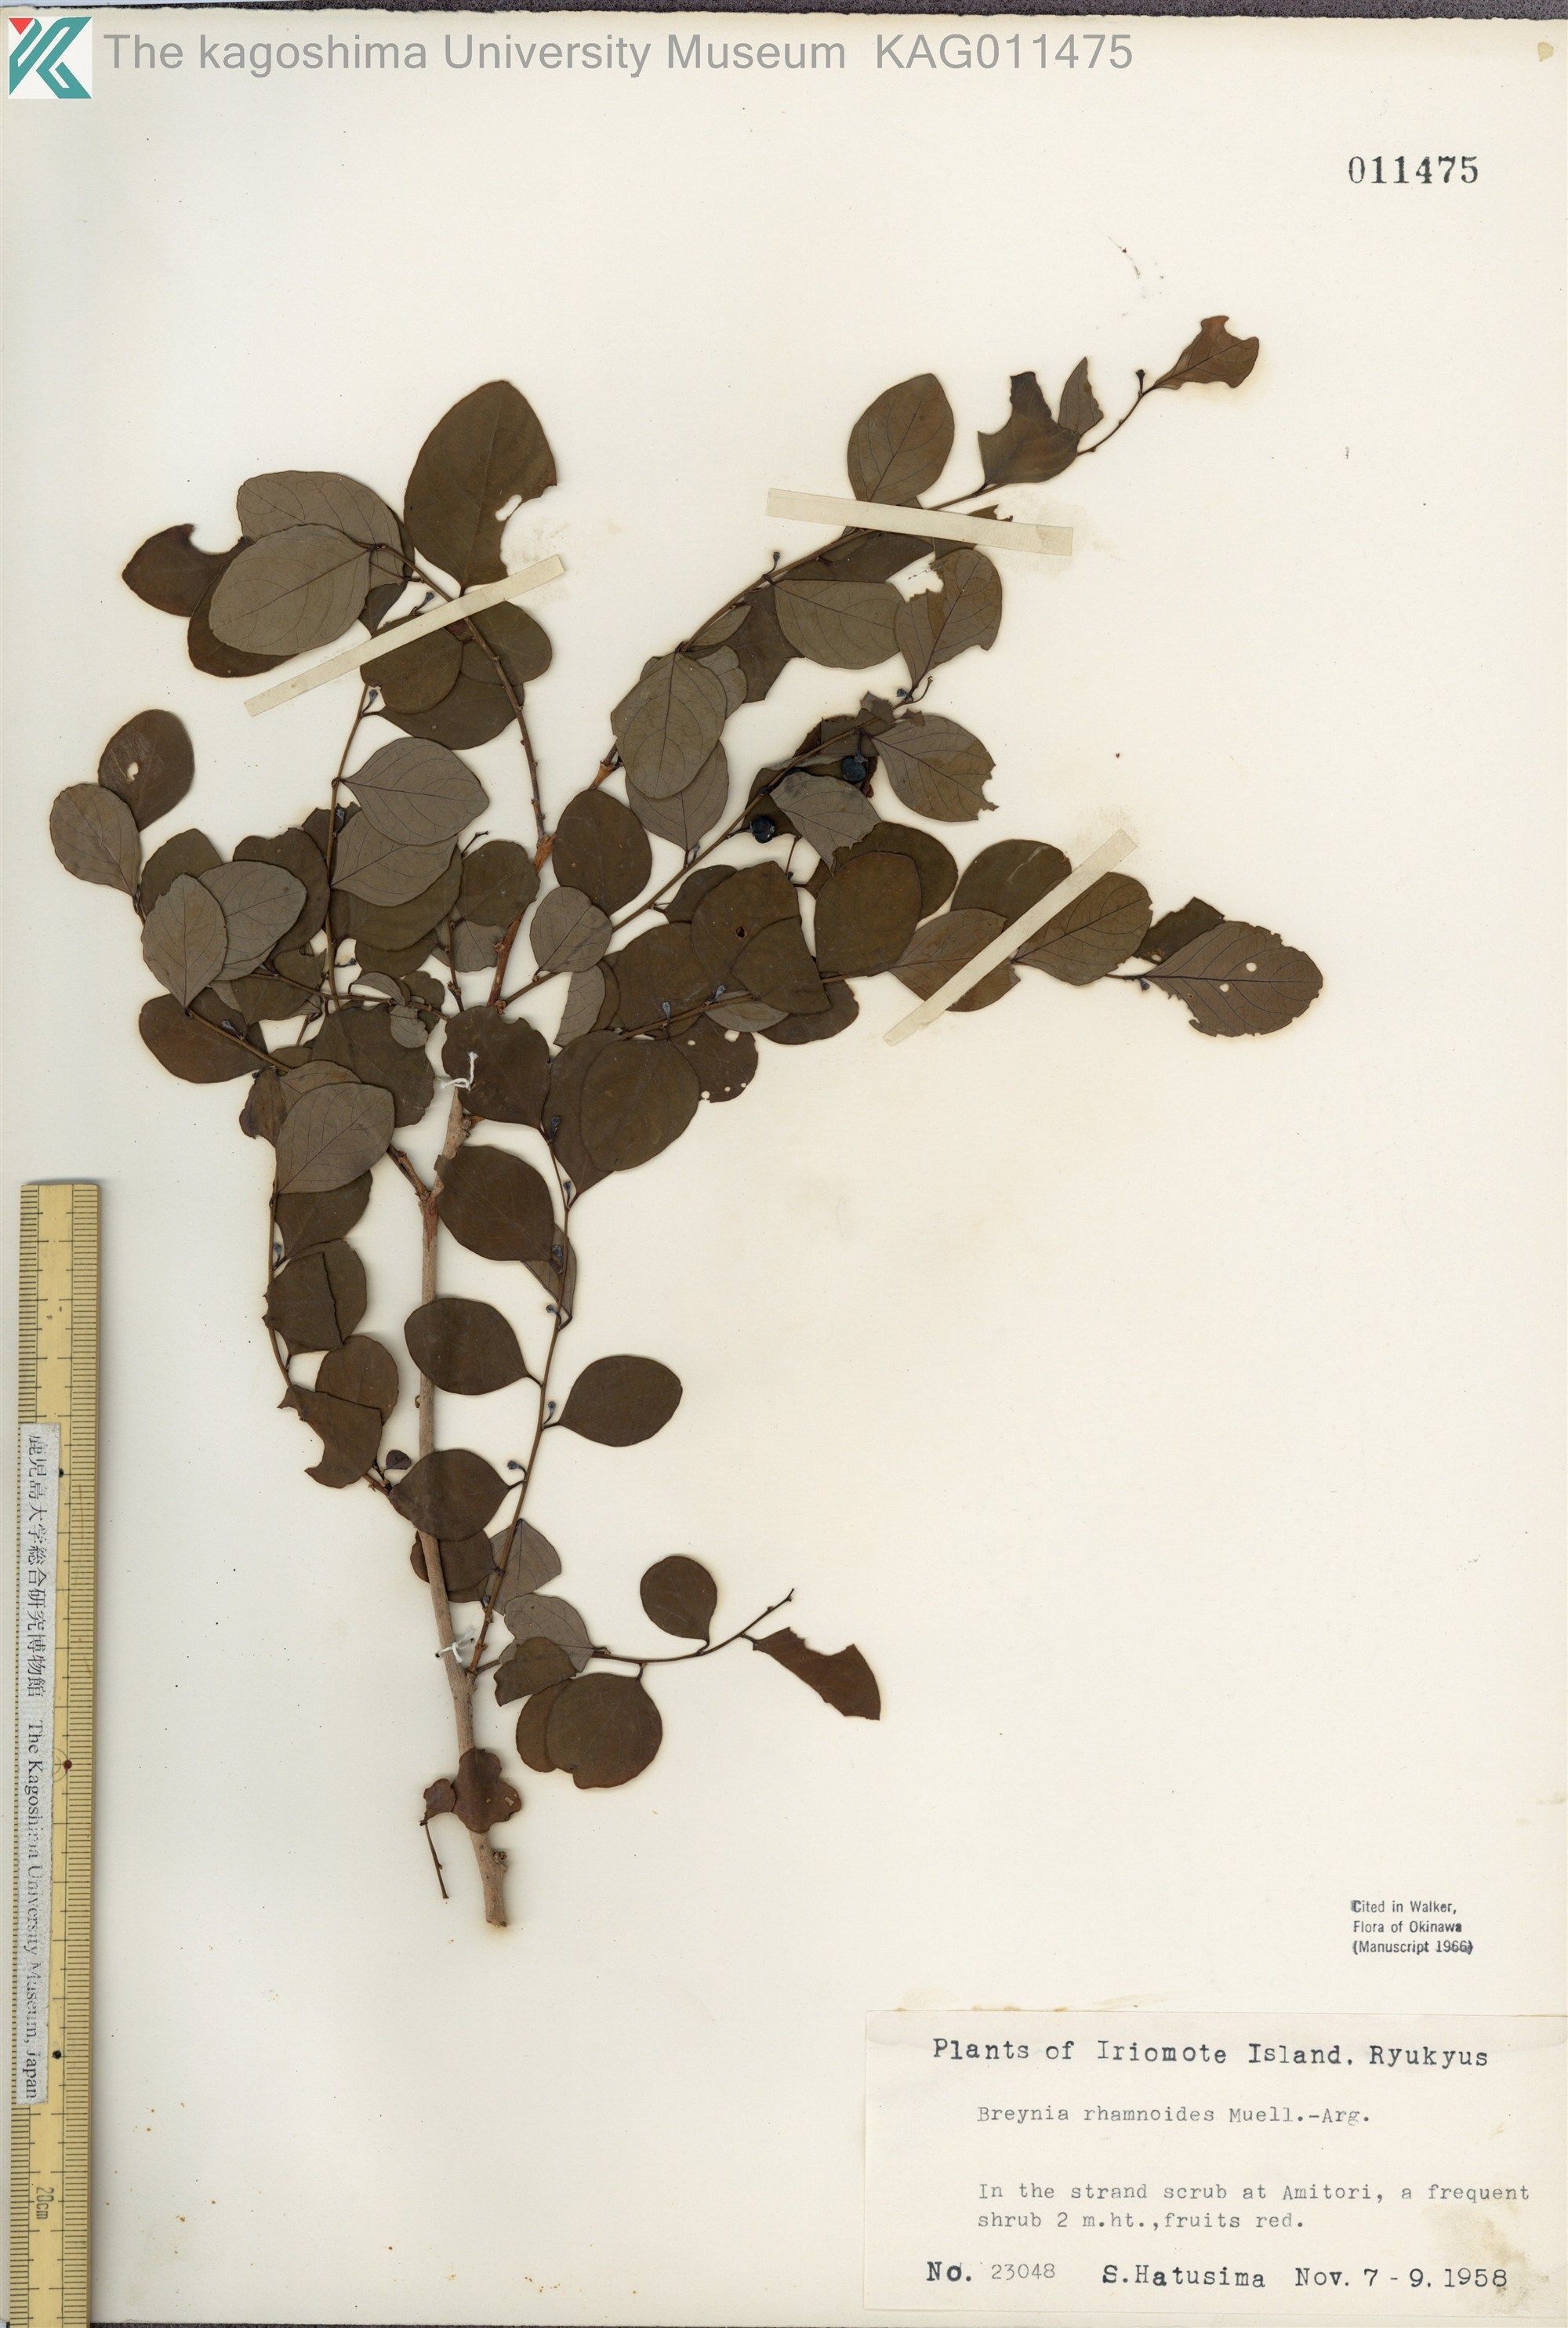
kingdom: Plantae
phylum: Tracheophyta
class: Magnoliopsida
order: Malpighiales
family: Phyllanthaceae
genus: Breynia
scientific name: Breynia vitis-idaea
